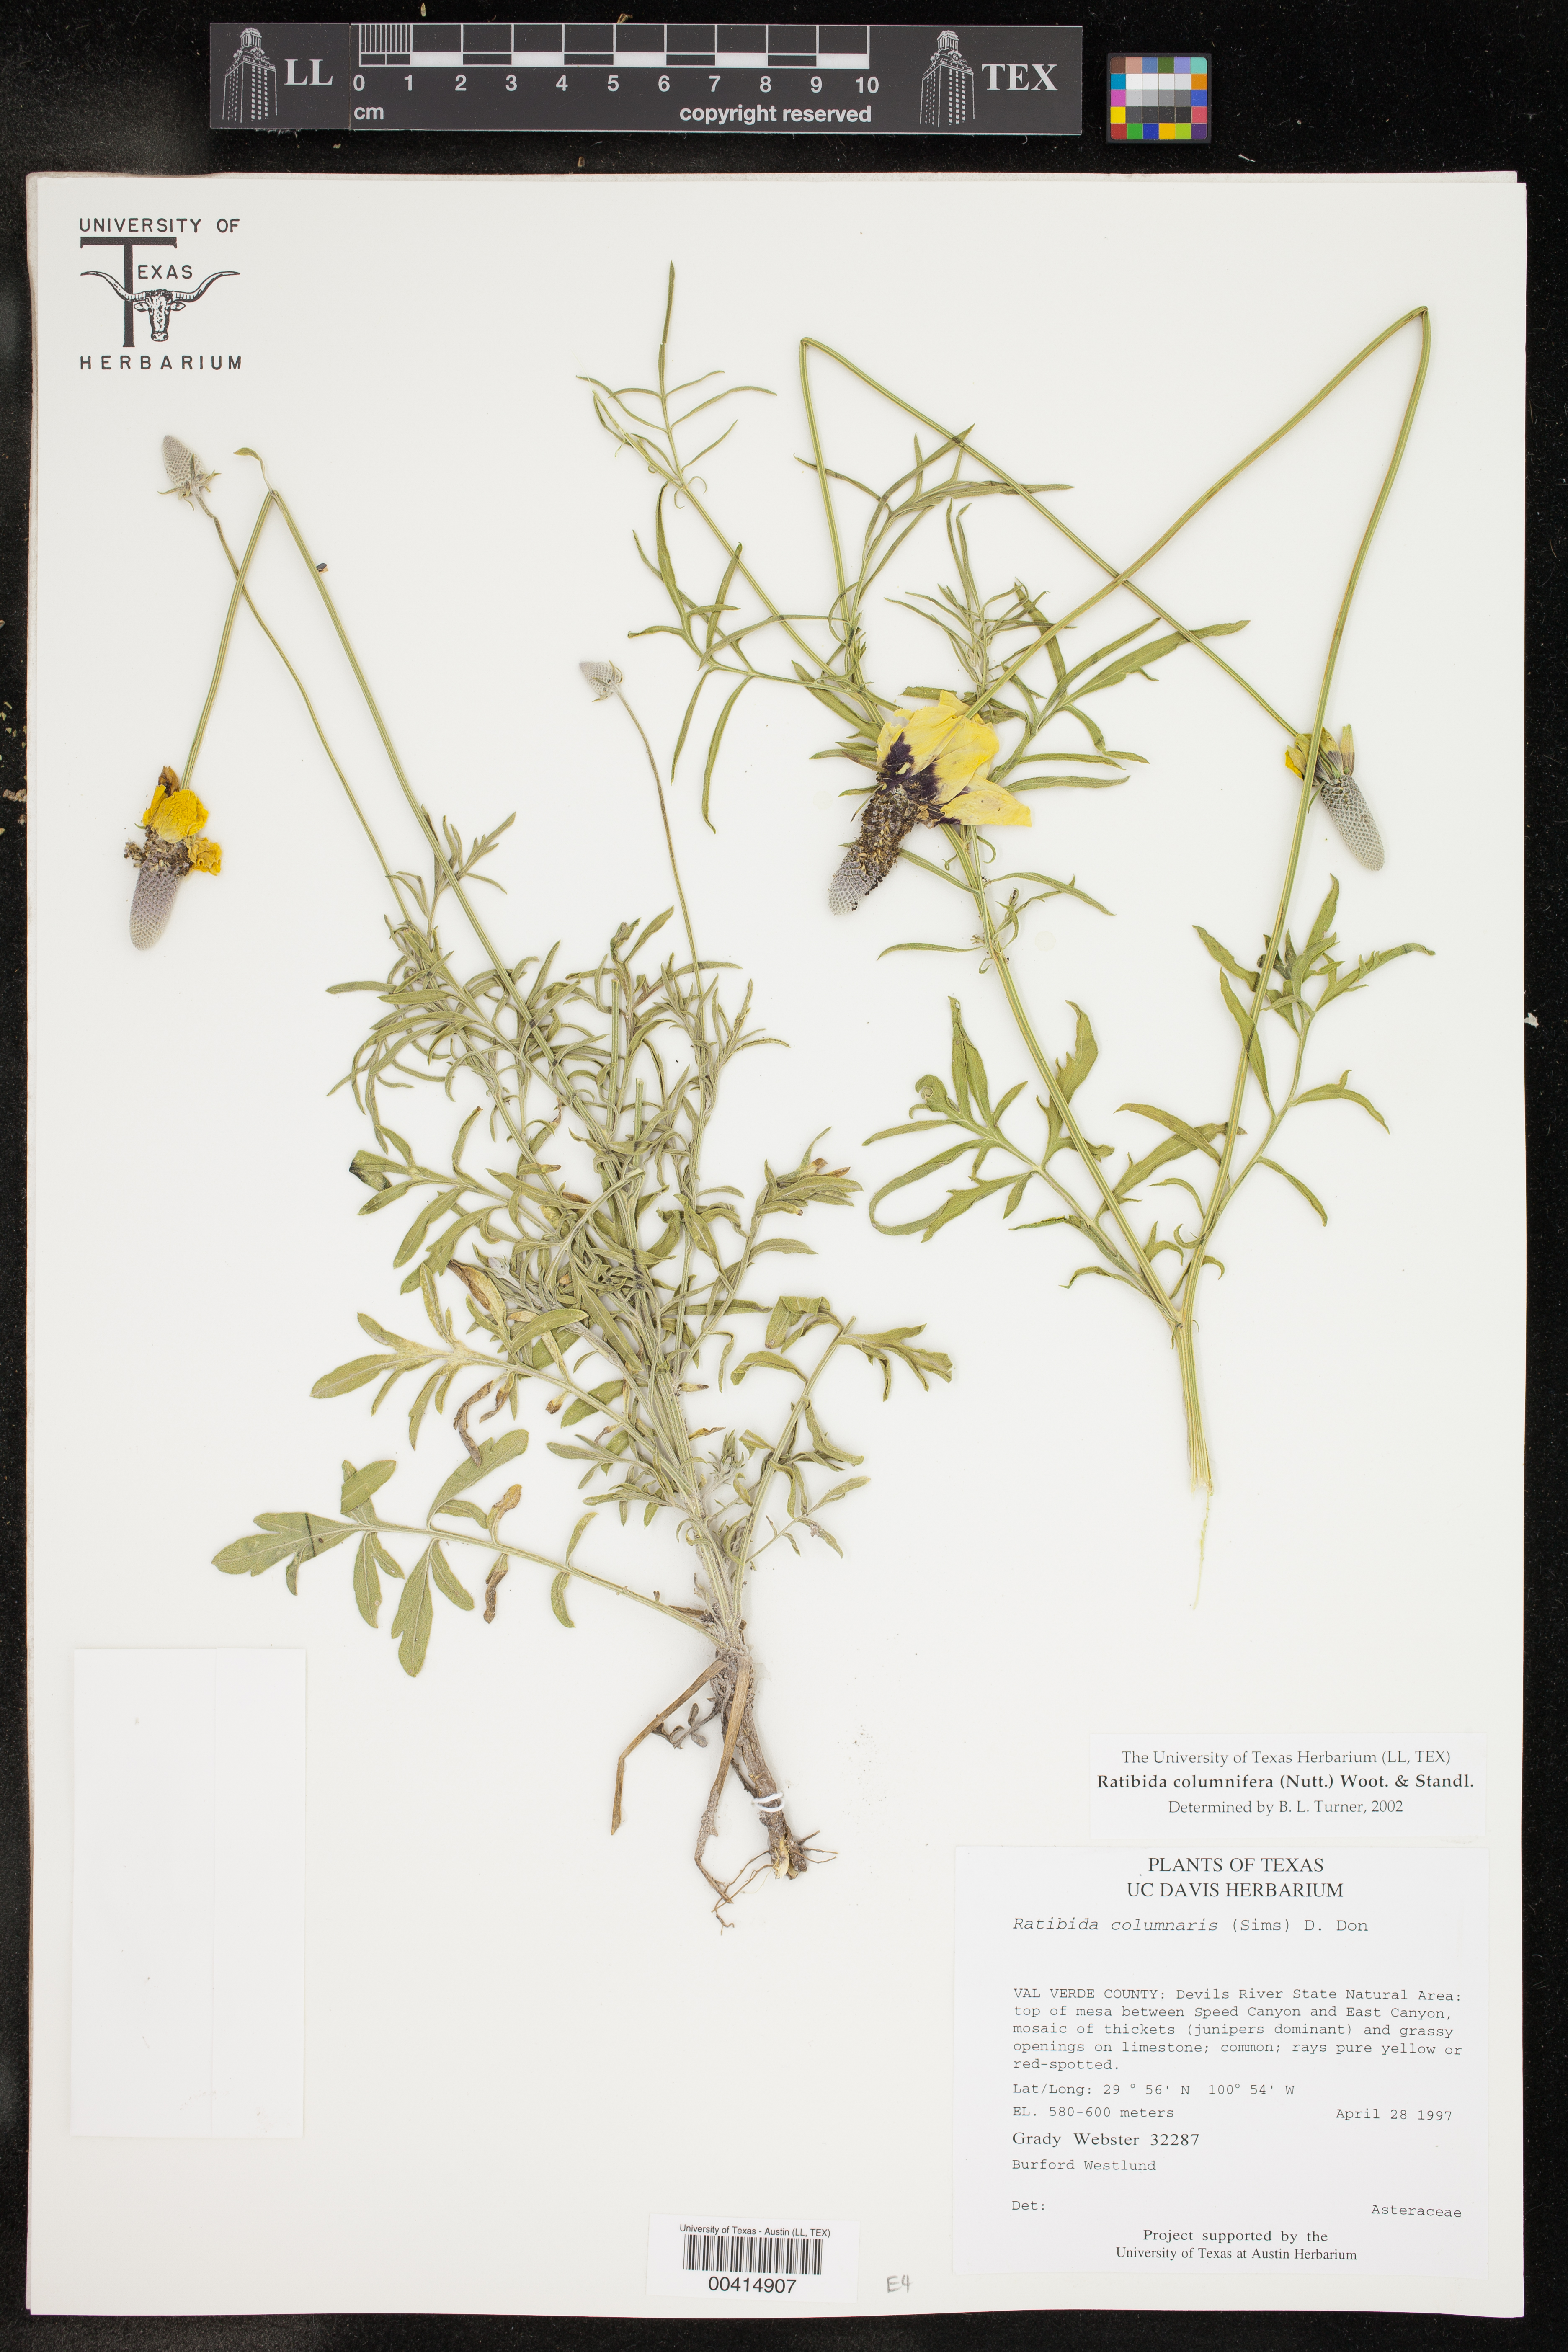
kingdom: Plantae
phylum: Tracheophyta
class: Magnoliopsida
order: Asterales
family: Asteraceae
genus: Ratibida
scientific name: Ratibida columnifera
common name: Prairie coneflower
